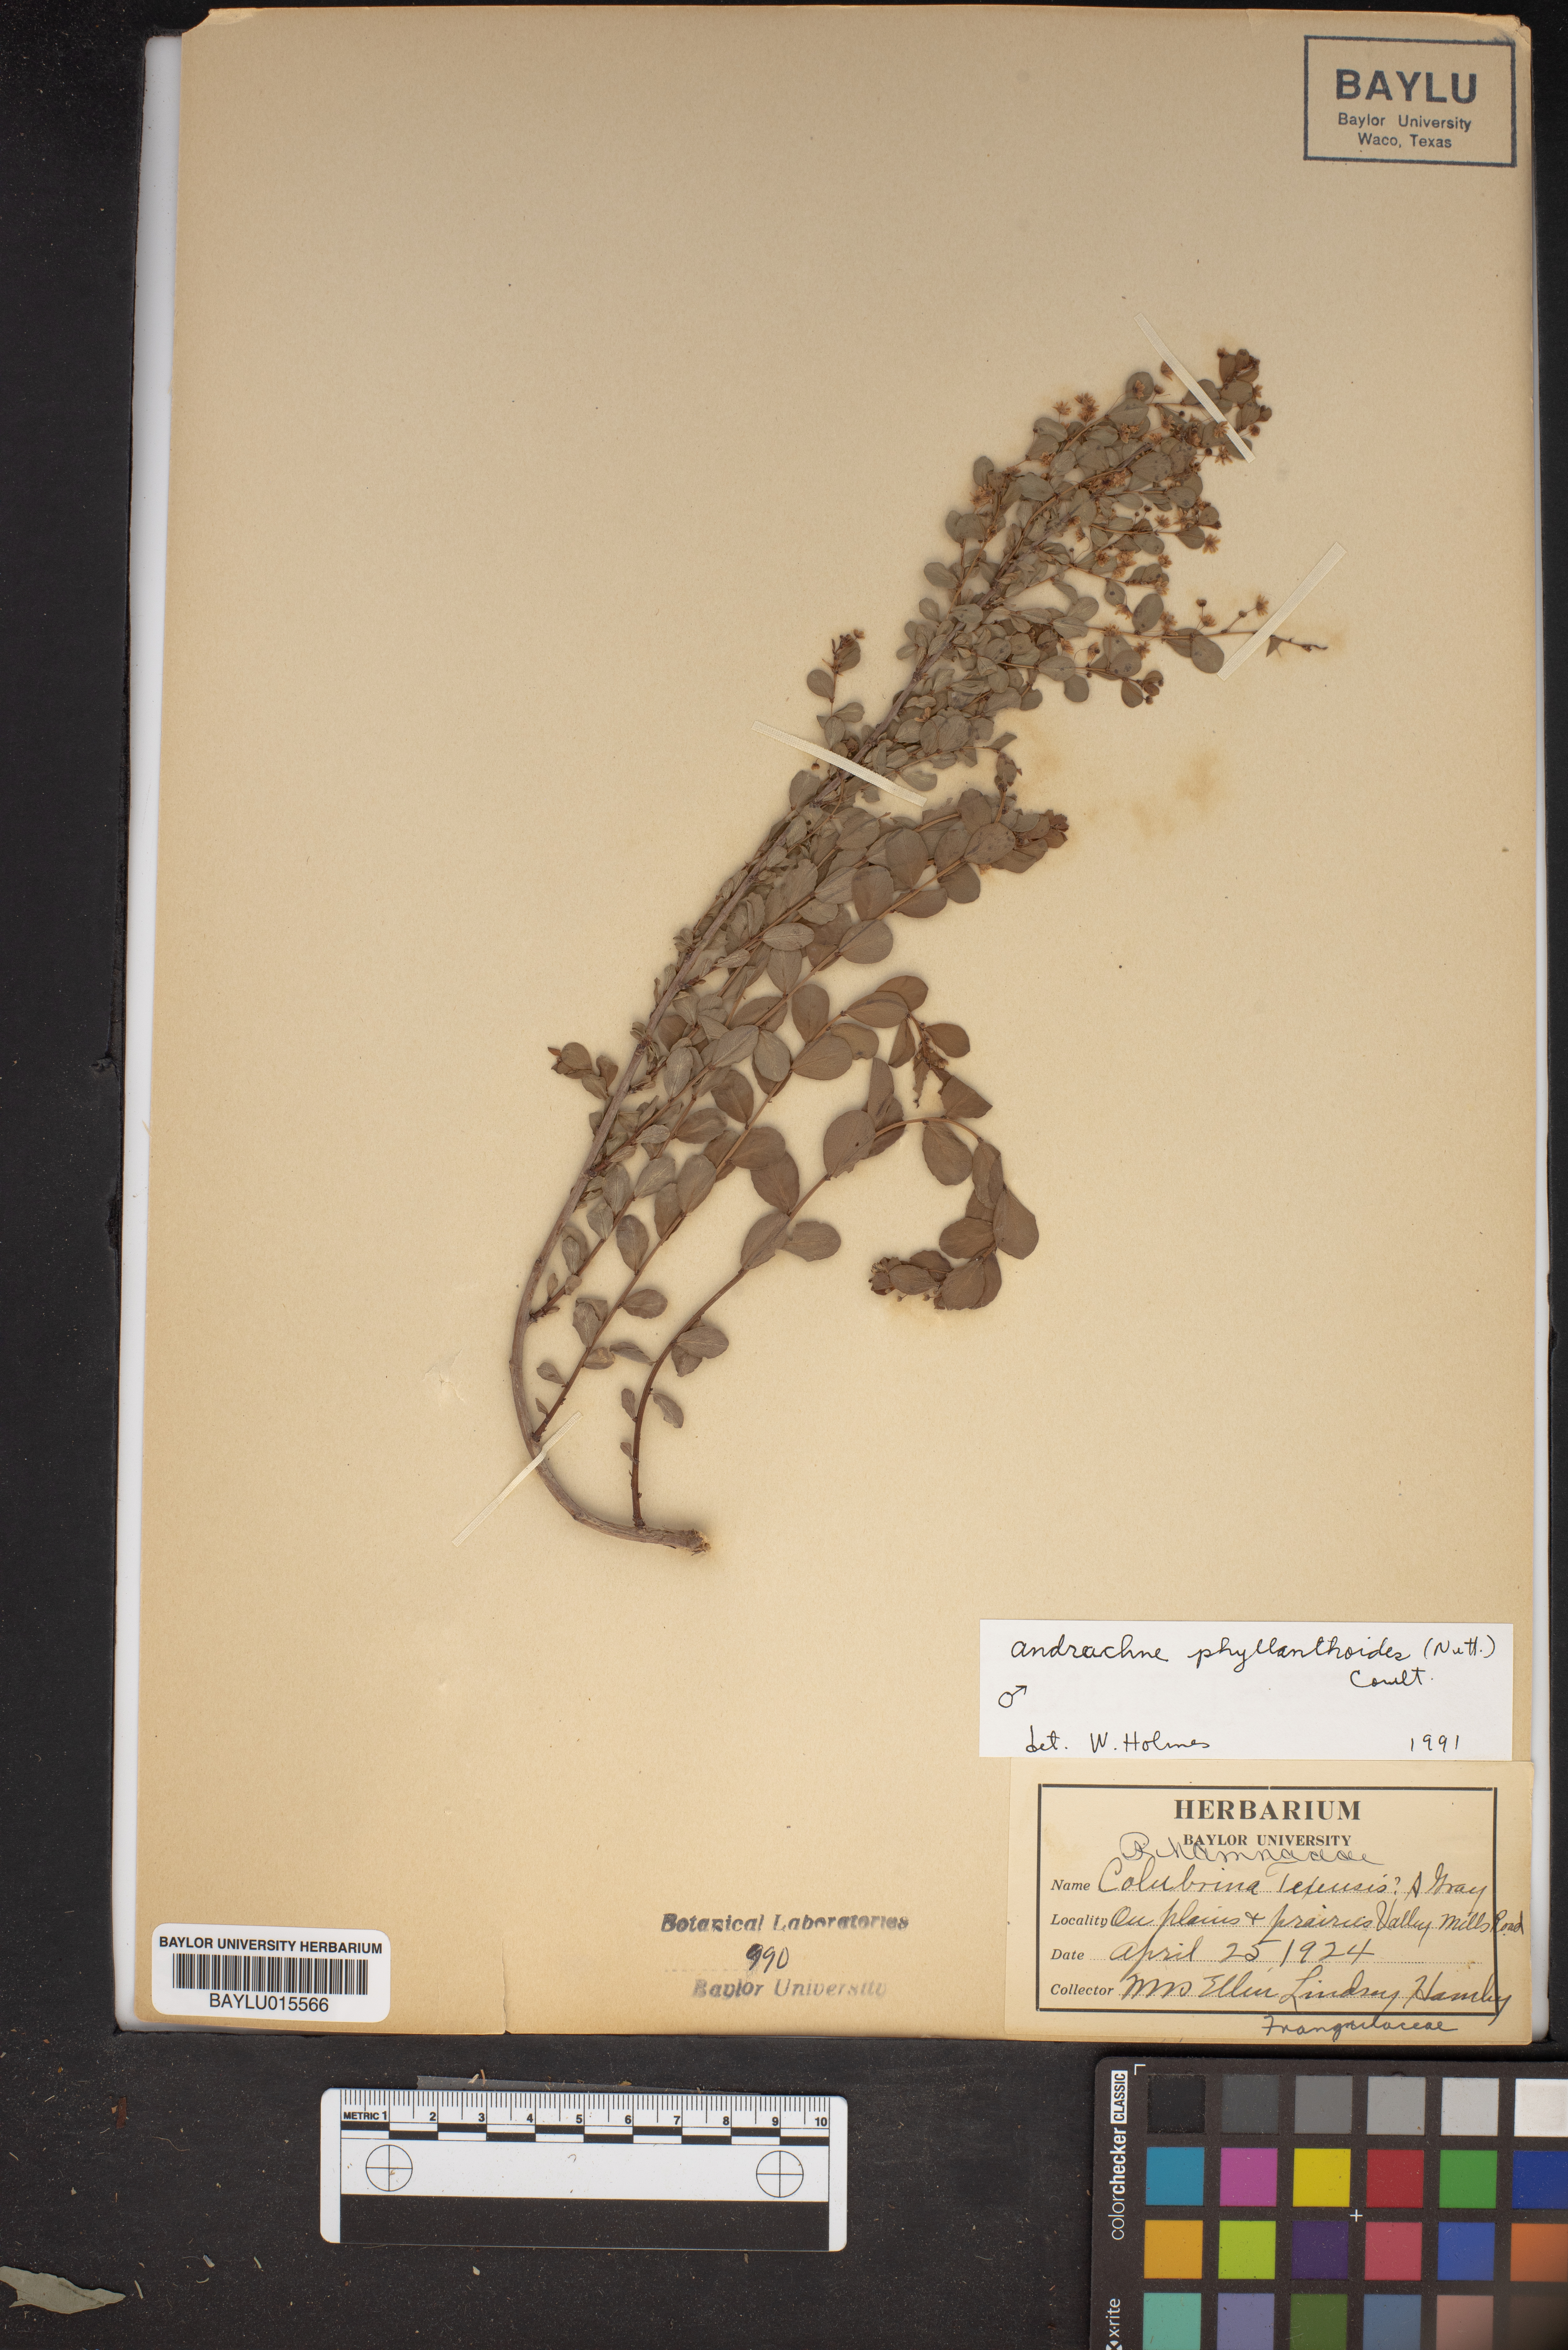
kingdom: Plantae
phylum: Tracheophyta
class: Magnoliopsida
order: Malpighiales
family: Phyllanthaceae
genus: Phyllanthopsis
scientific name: Phyllanthopsis phyllanthoides
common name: Missouri maidenbush
